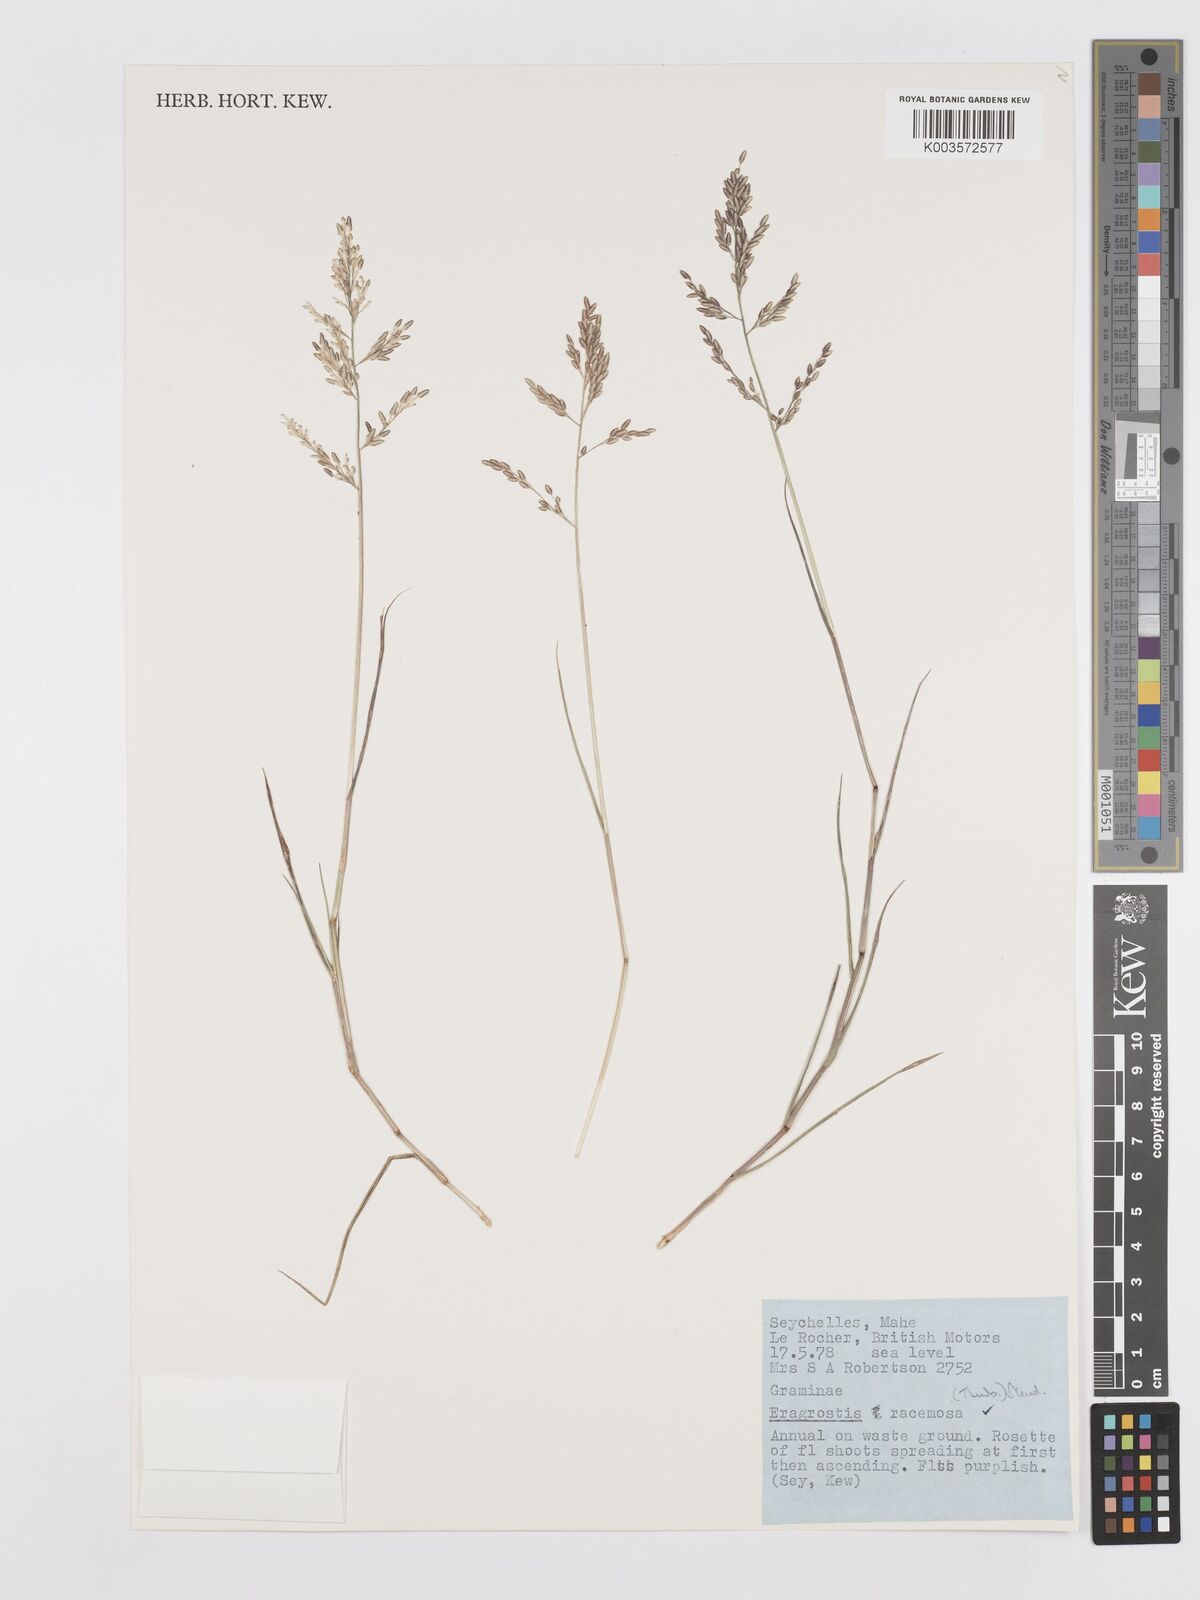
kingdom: Plantae
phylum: Tracheophyta
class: Liliopsida
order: Poales
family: Poaceae
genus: Eragrostis
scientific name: Eragrostis racemosa
